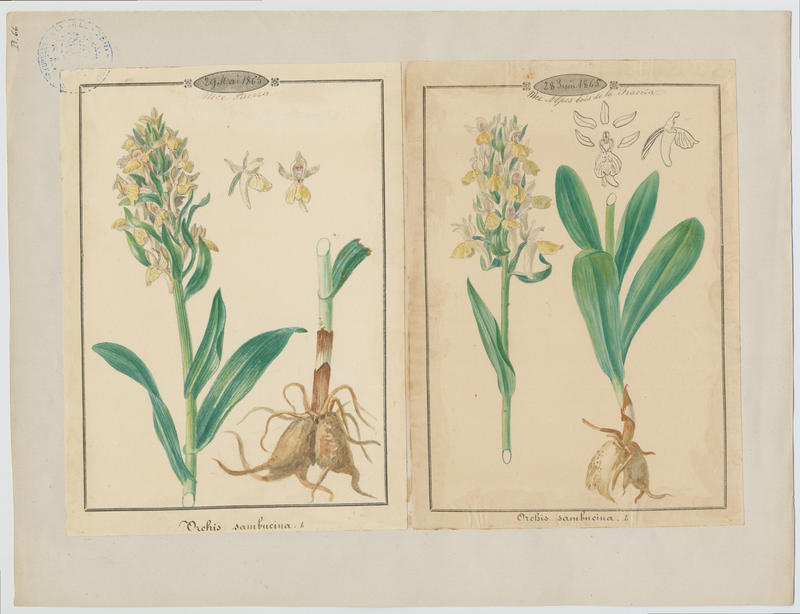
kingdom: Plantae
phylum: Tracheophyta
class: Liliopsida
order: Asparagales
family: Orchidaceae
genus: Dactylorhiza
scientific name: Dactylorhiza sambucina
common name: Elder-flowered orchid
